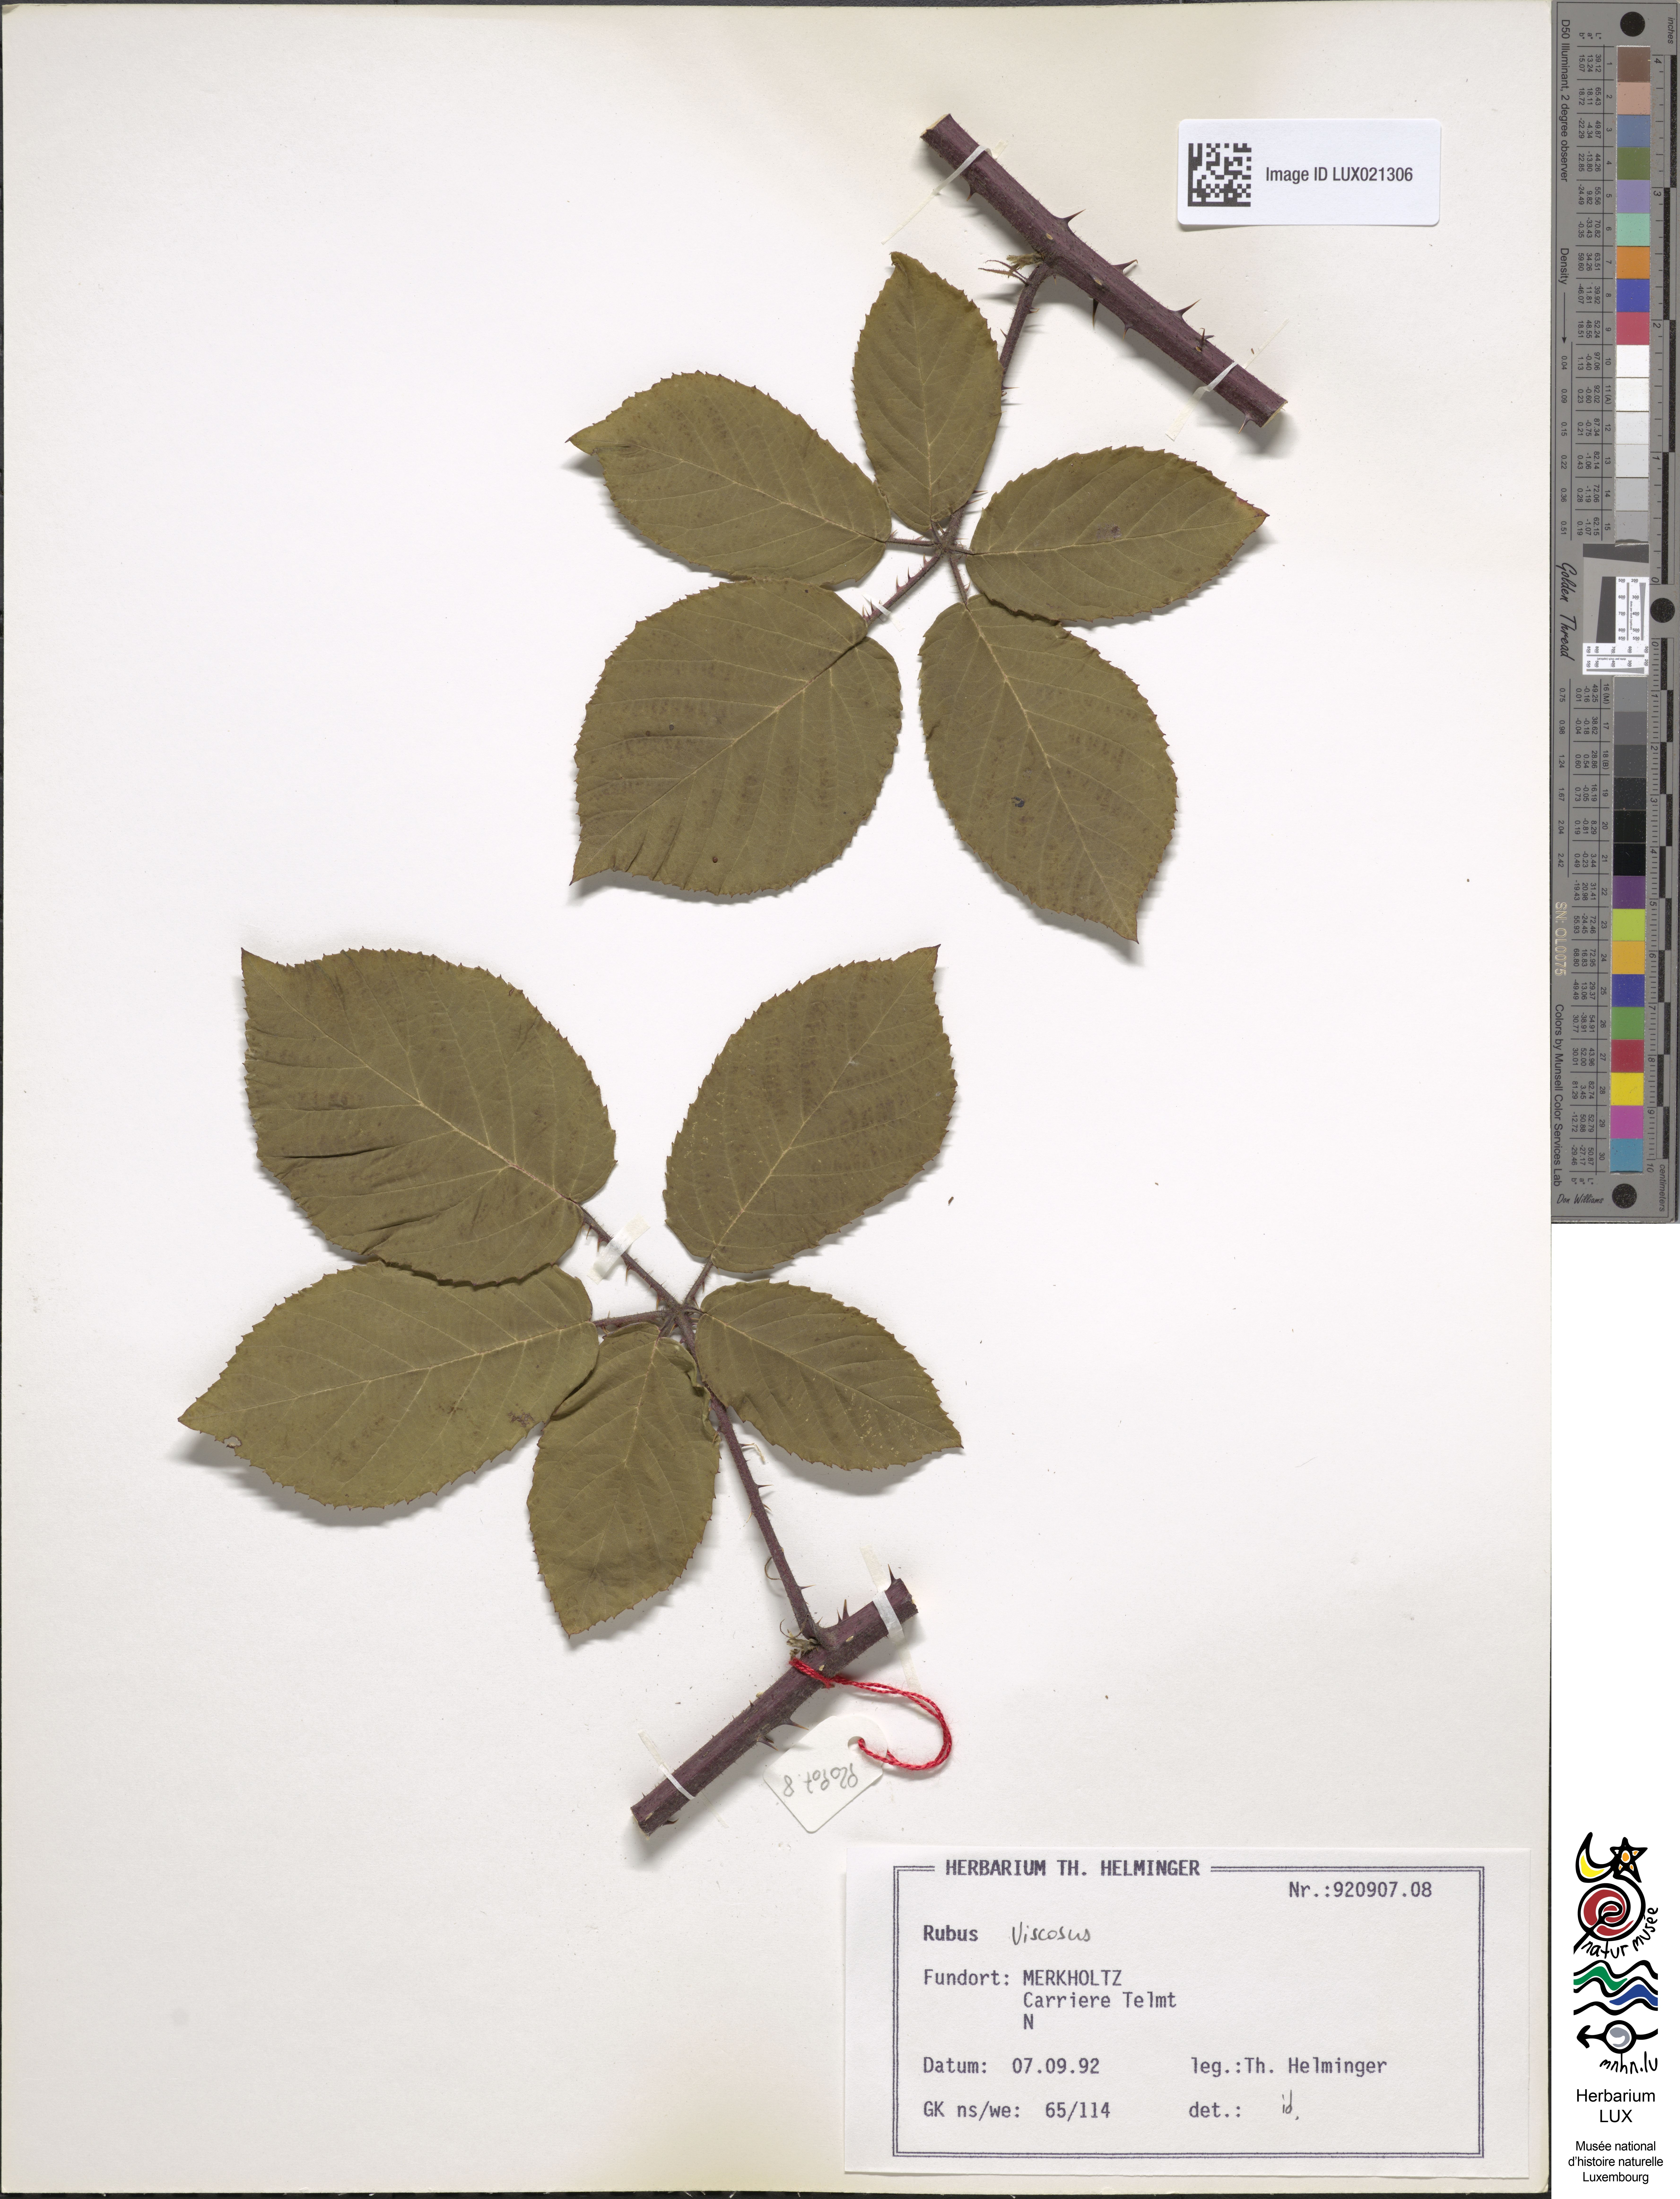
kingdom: Plantae
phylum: Tracheophyta
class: Magnoliopsida
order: Rosales
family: Rosaceae
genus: Rubus
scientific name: Rubus viscosus
